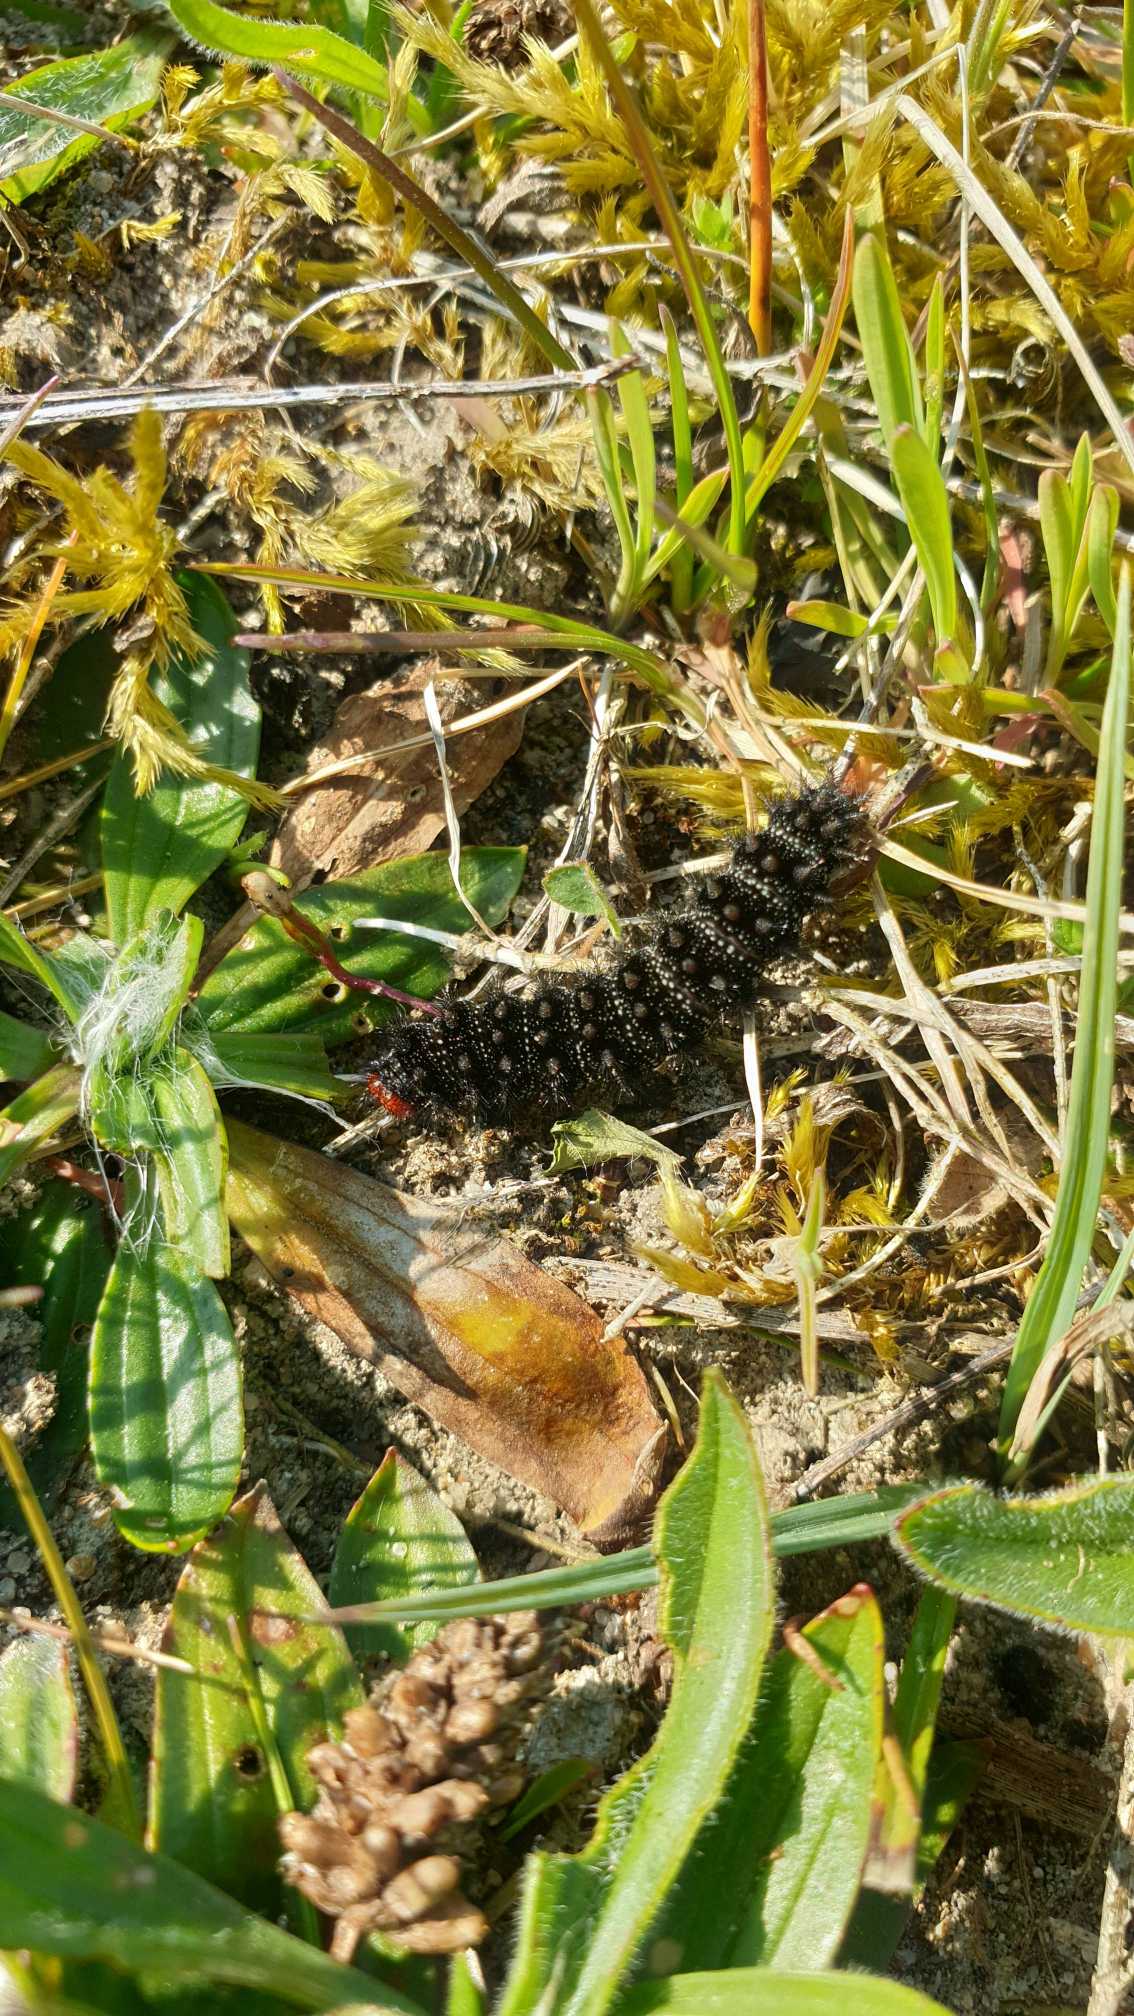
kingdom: Animalia
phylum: Arthropoda
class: Insecta
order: Lepidoptera
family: Nymphalidae
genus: Melitaea
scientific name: Melitaea cinxia
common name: Okkergul pletvinge
